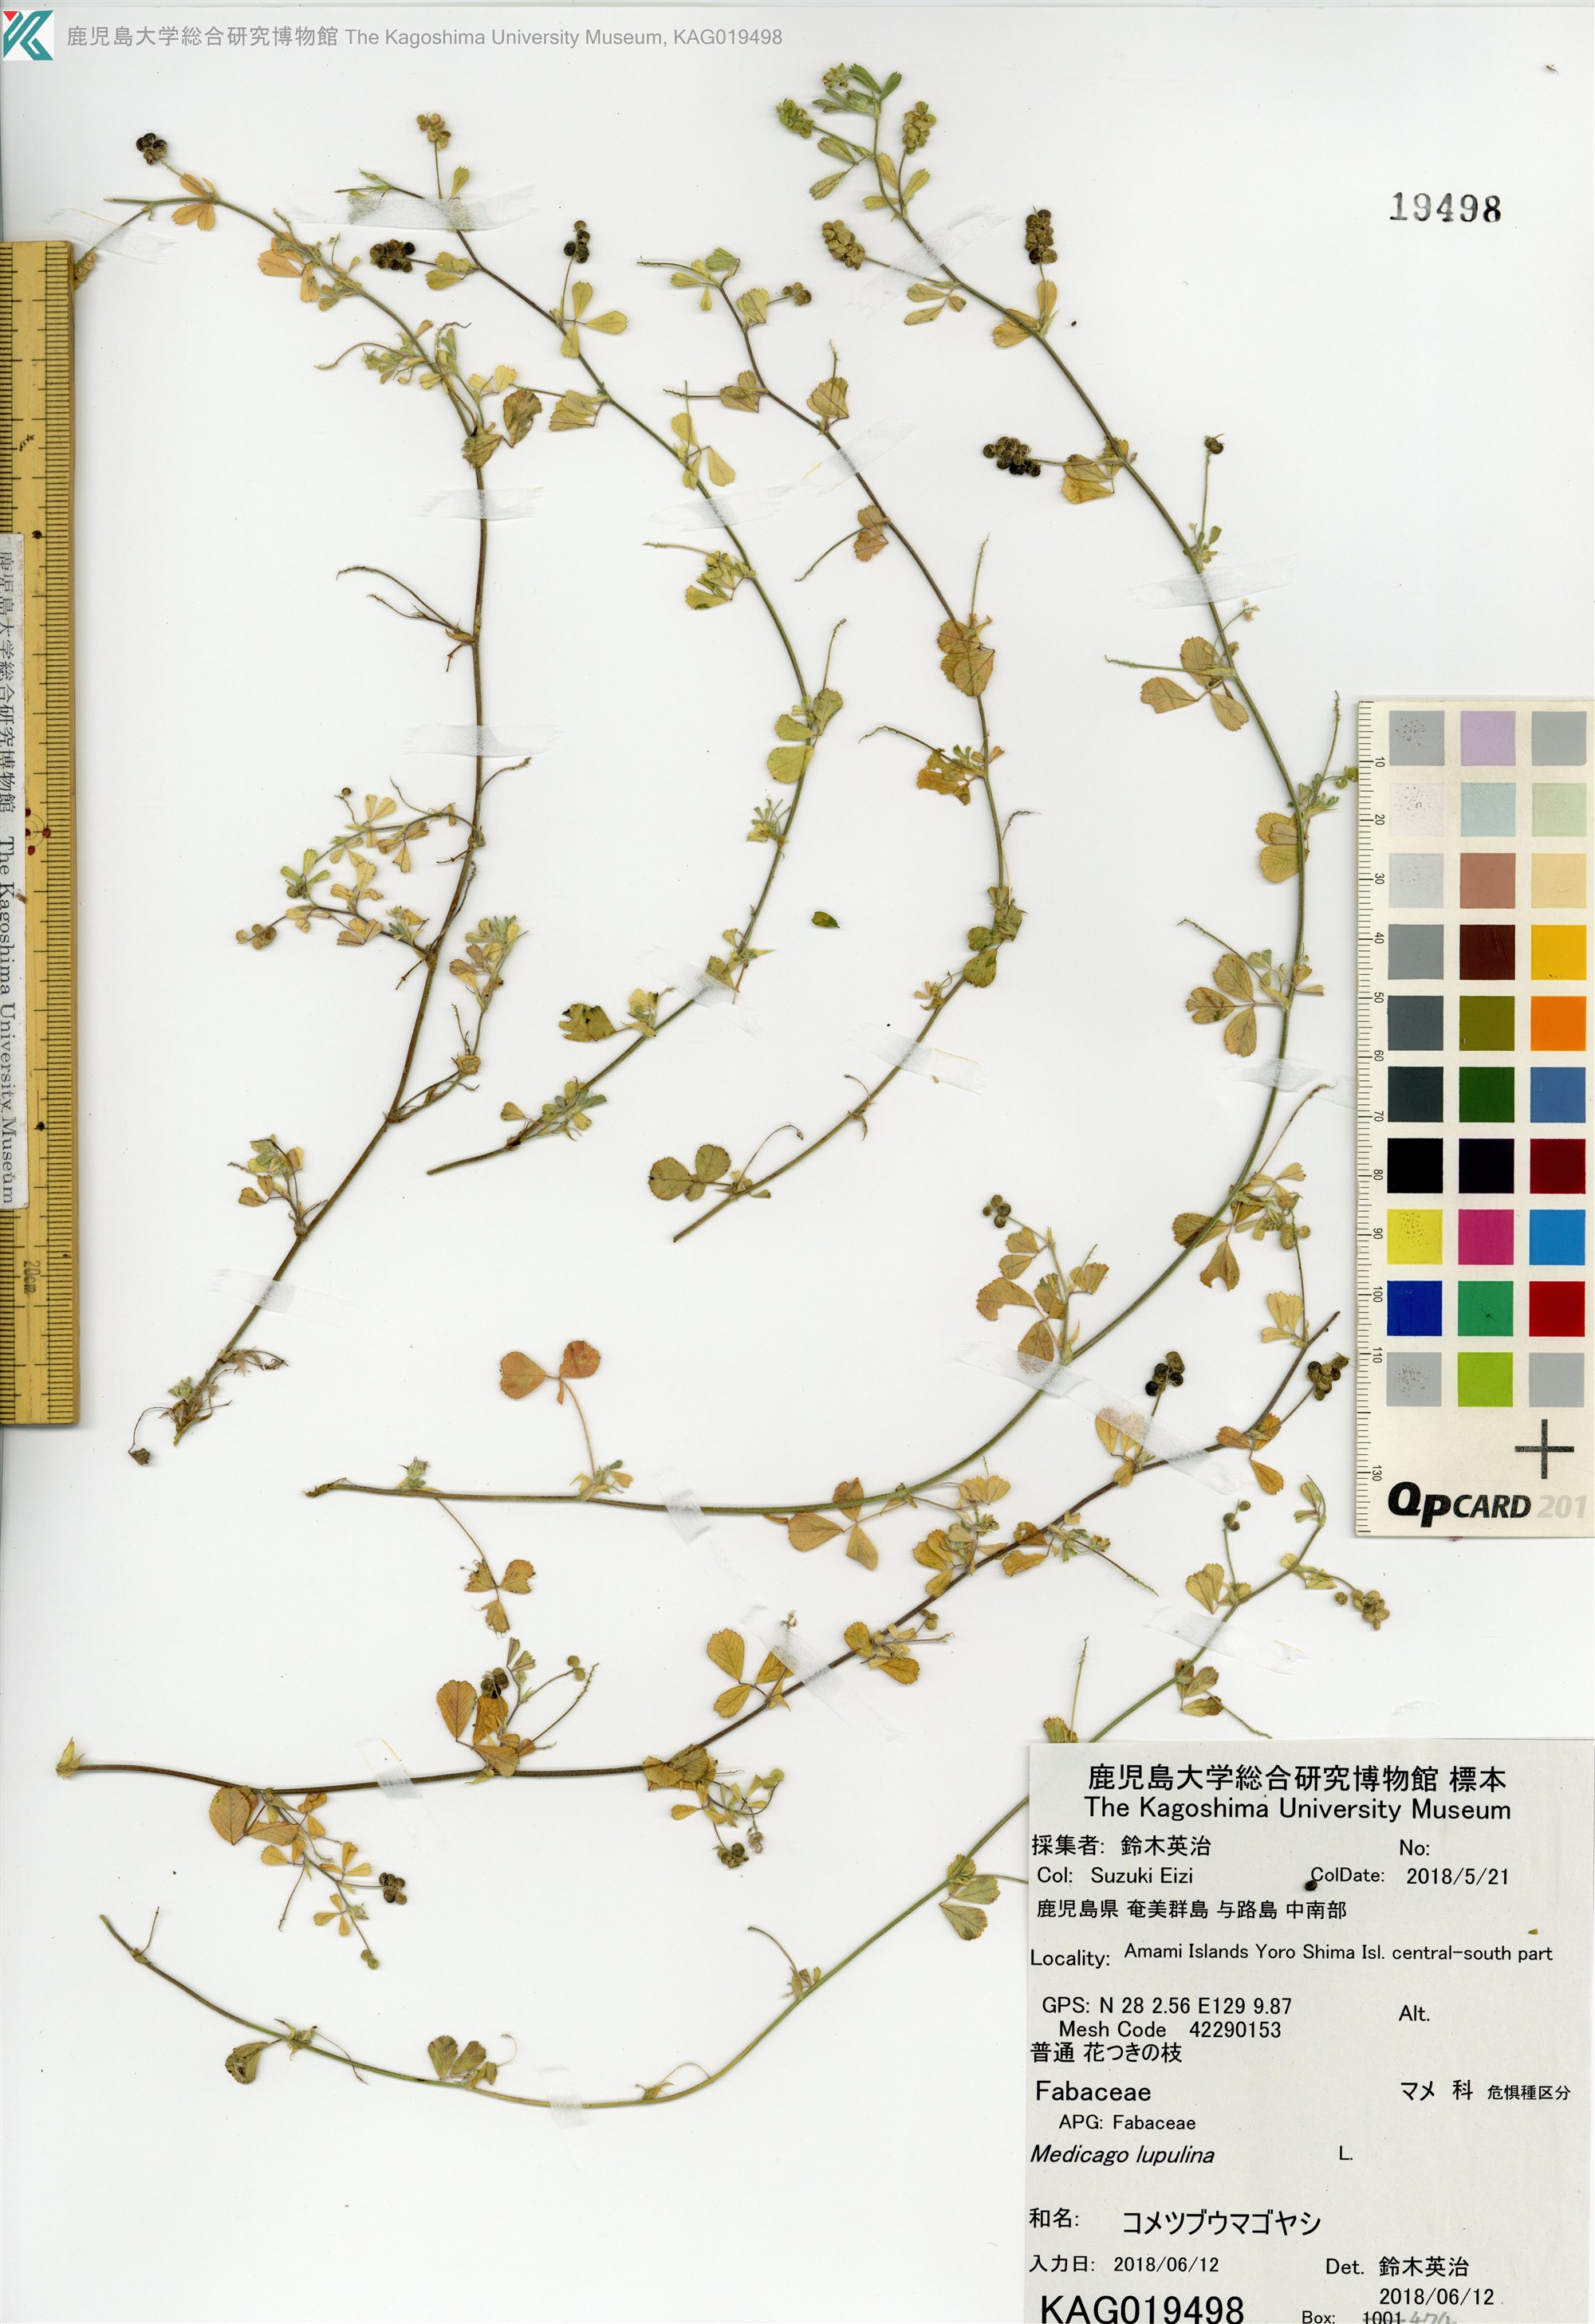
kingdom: Plantae
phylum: Tracheophyta
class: Magnoliopsida
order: Fabales
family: Fabaceae
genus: Medicago
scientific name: Medicago lupulina
